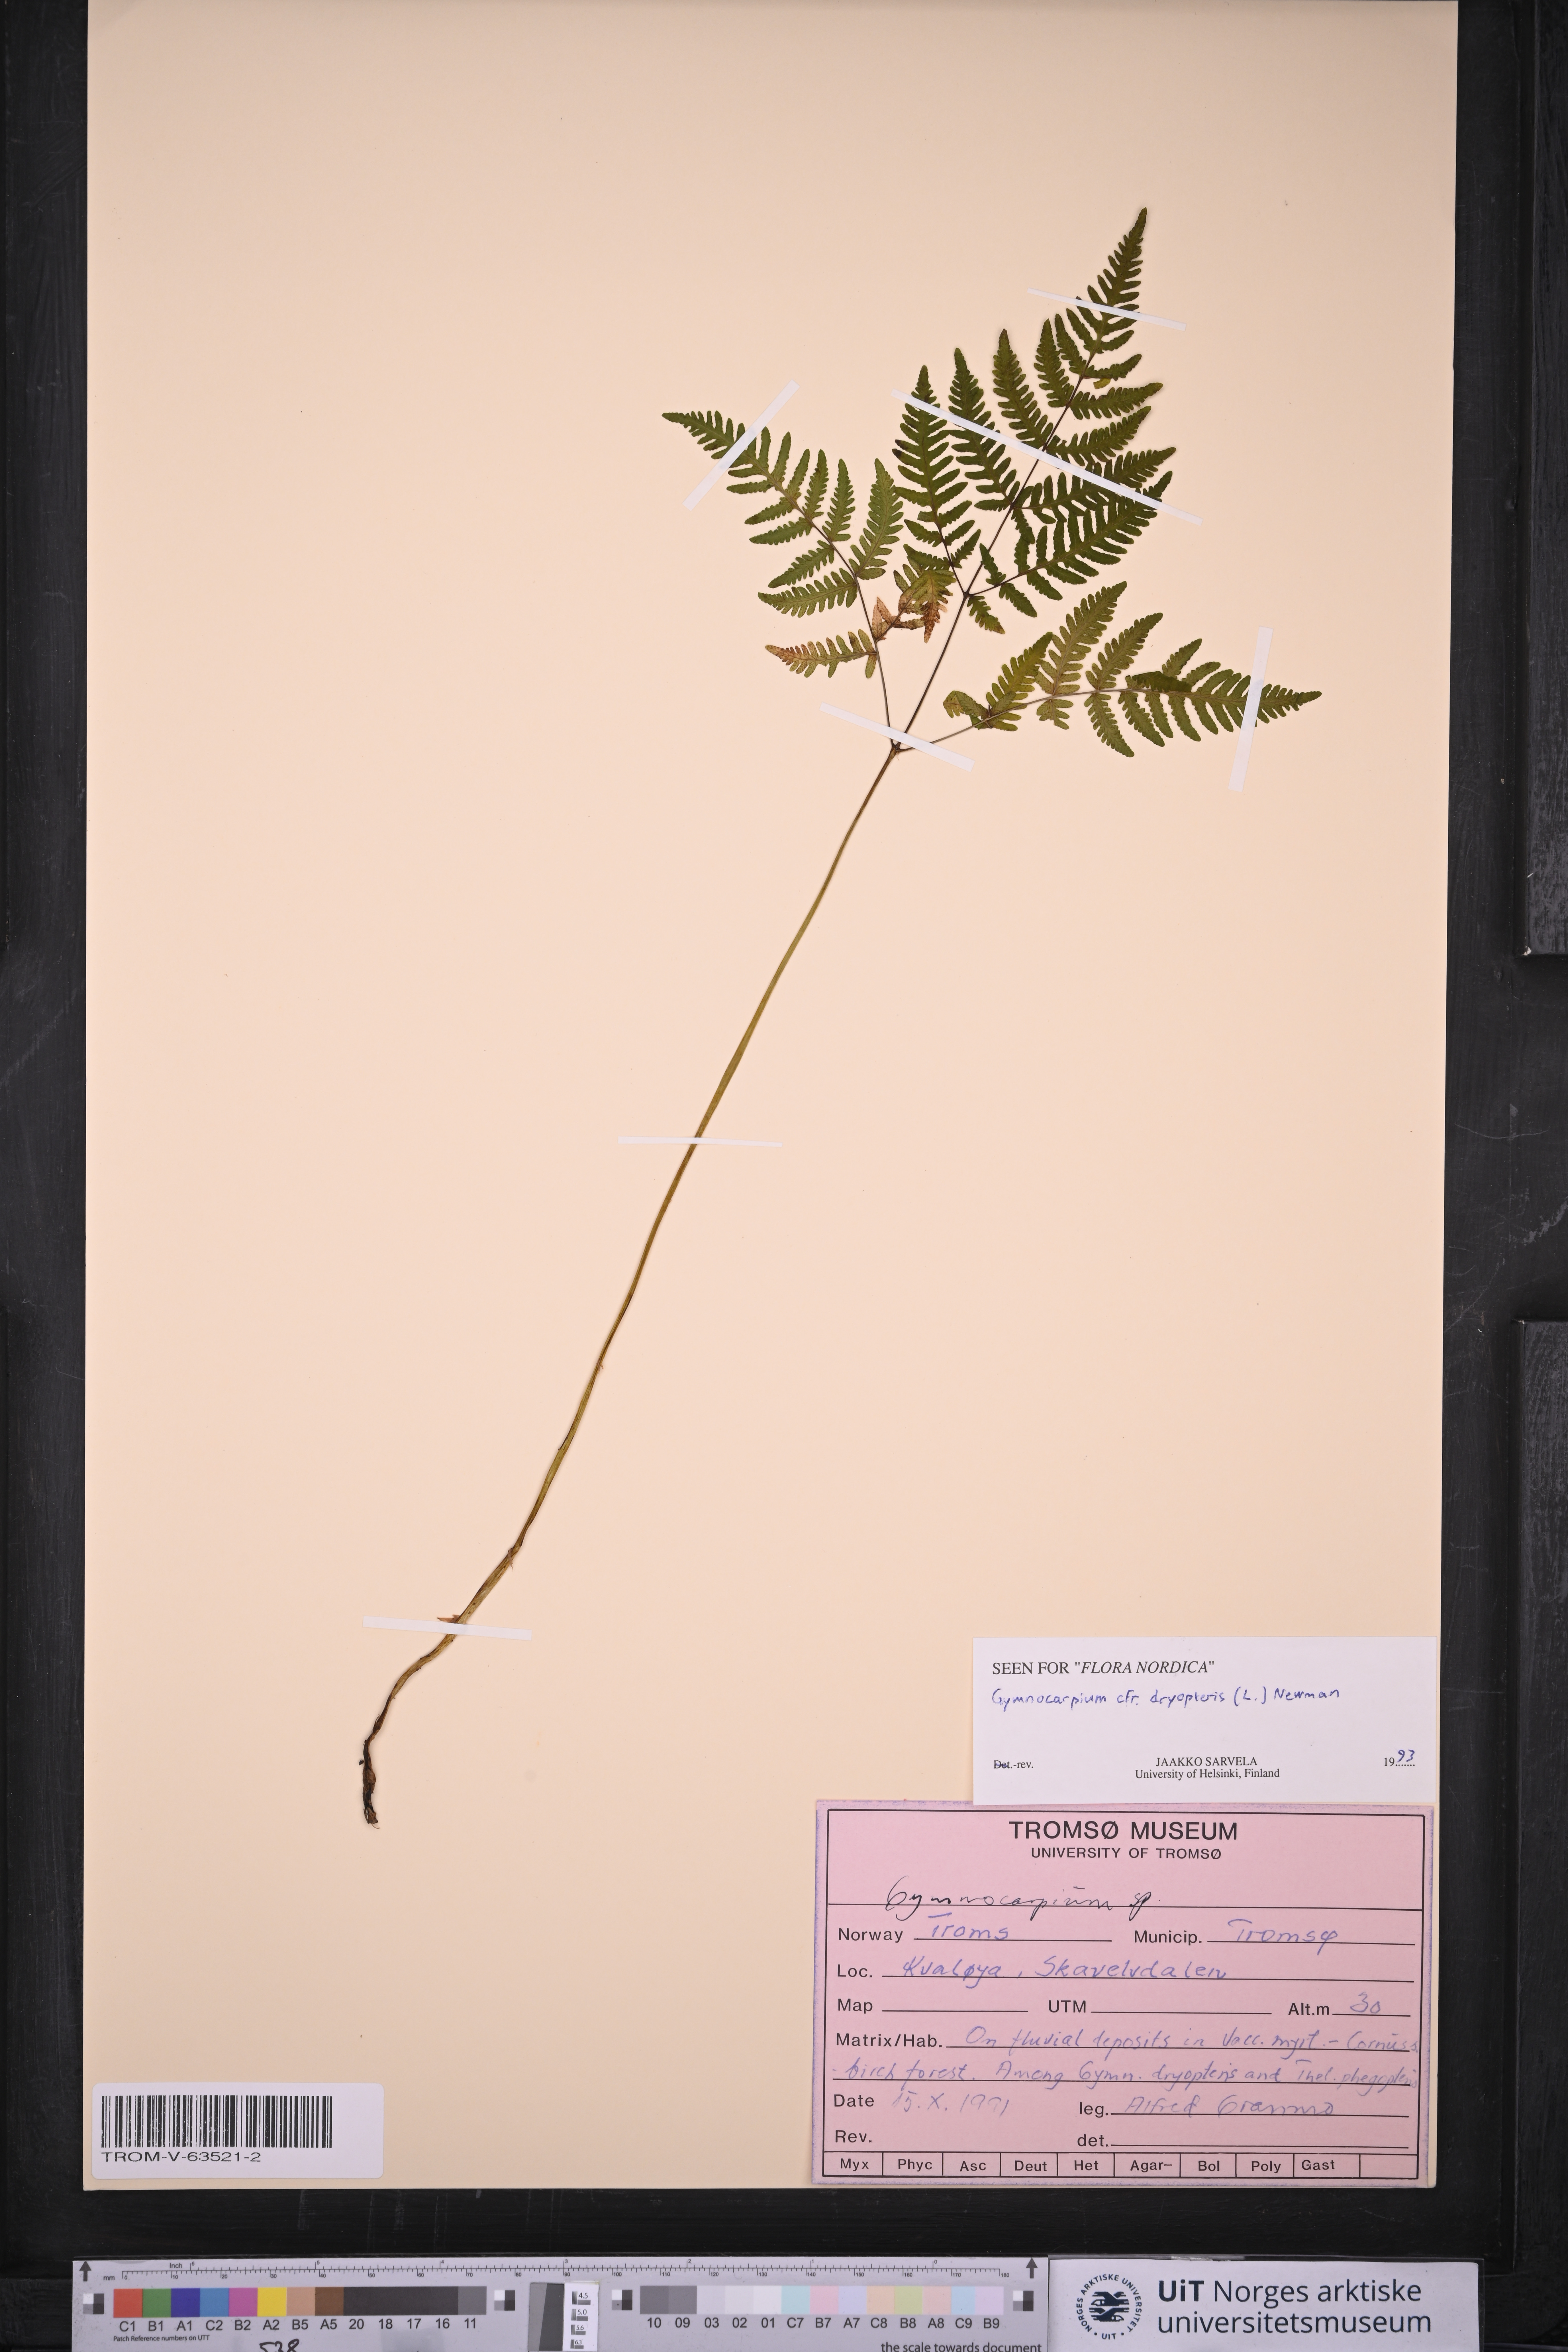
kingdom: Plantae
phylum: Tracheophyta
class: Polypodiopsida
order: Polypodiales
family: Cystopteridaceae
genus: Gymnocarpium
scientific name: Gymnocarpium dryopteris
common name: Oak fern
